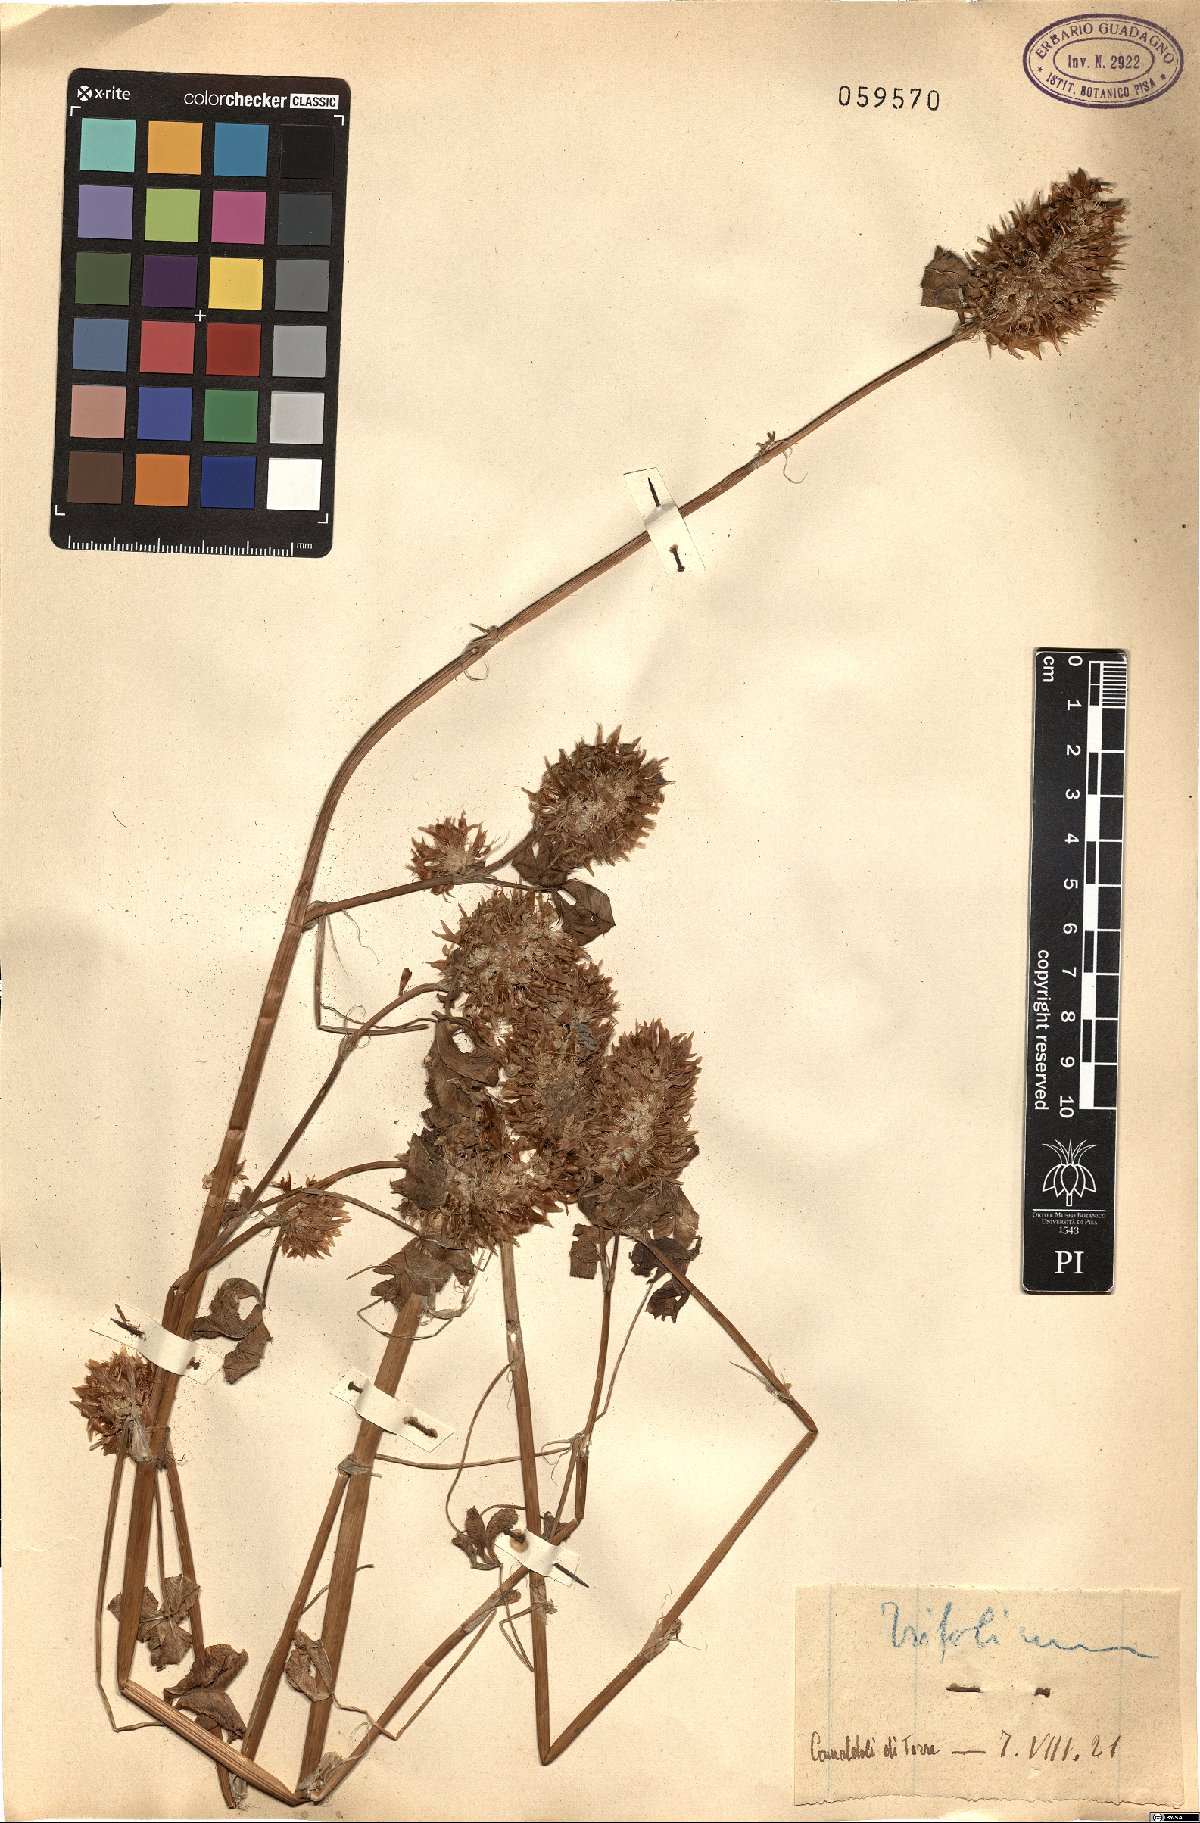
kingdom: Plantae
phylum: Tracheophyta
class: Magnoliopsida
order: Fabales
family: Fabaceae
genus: Trifolium
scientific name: Trifolium
